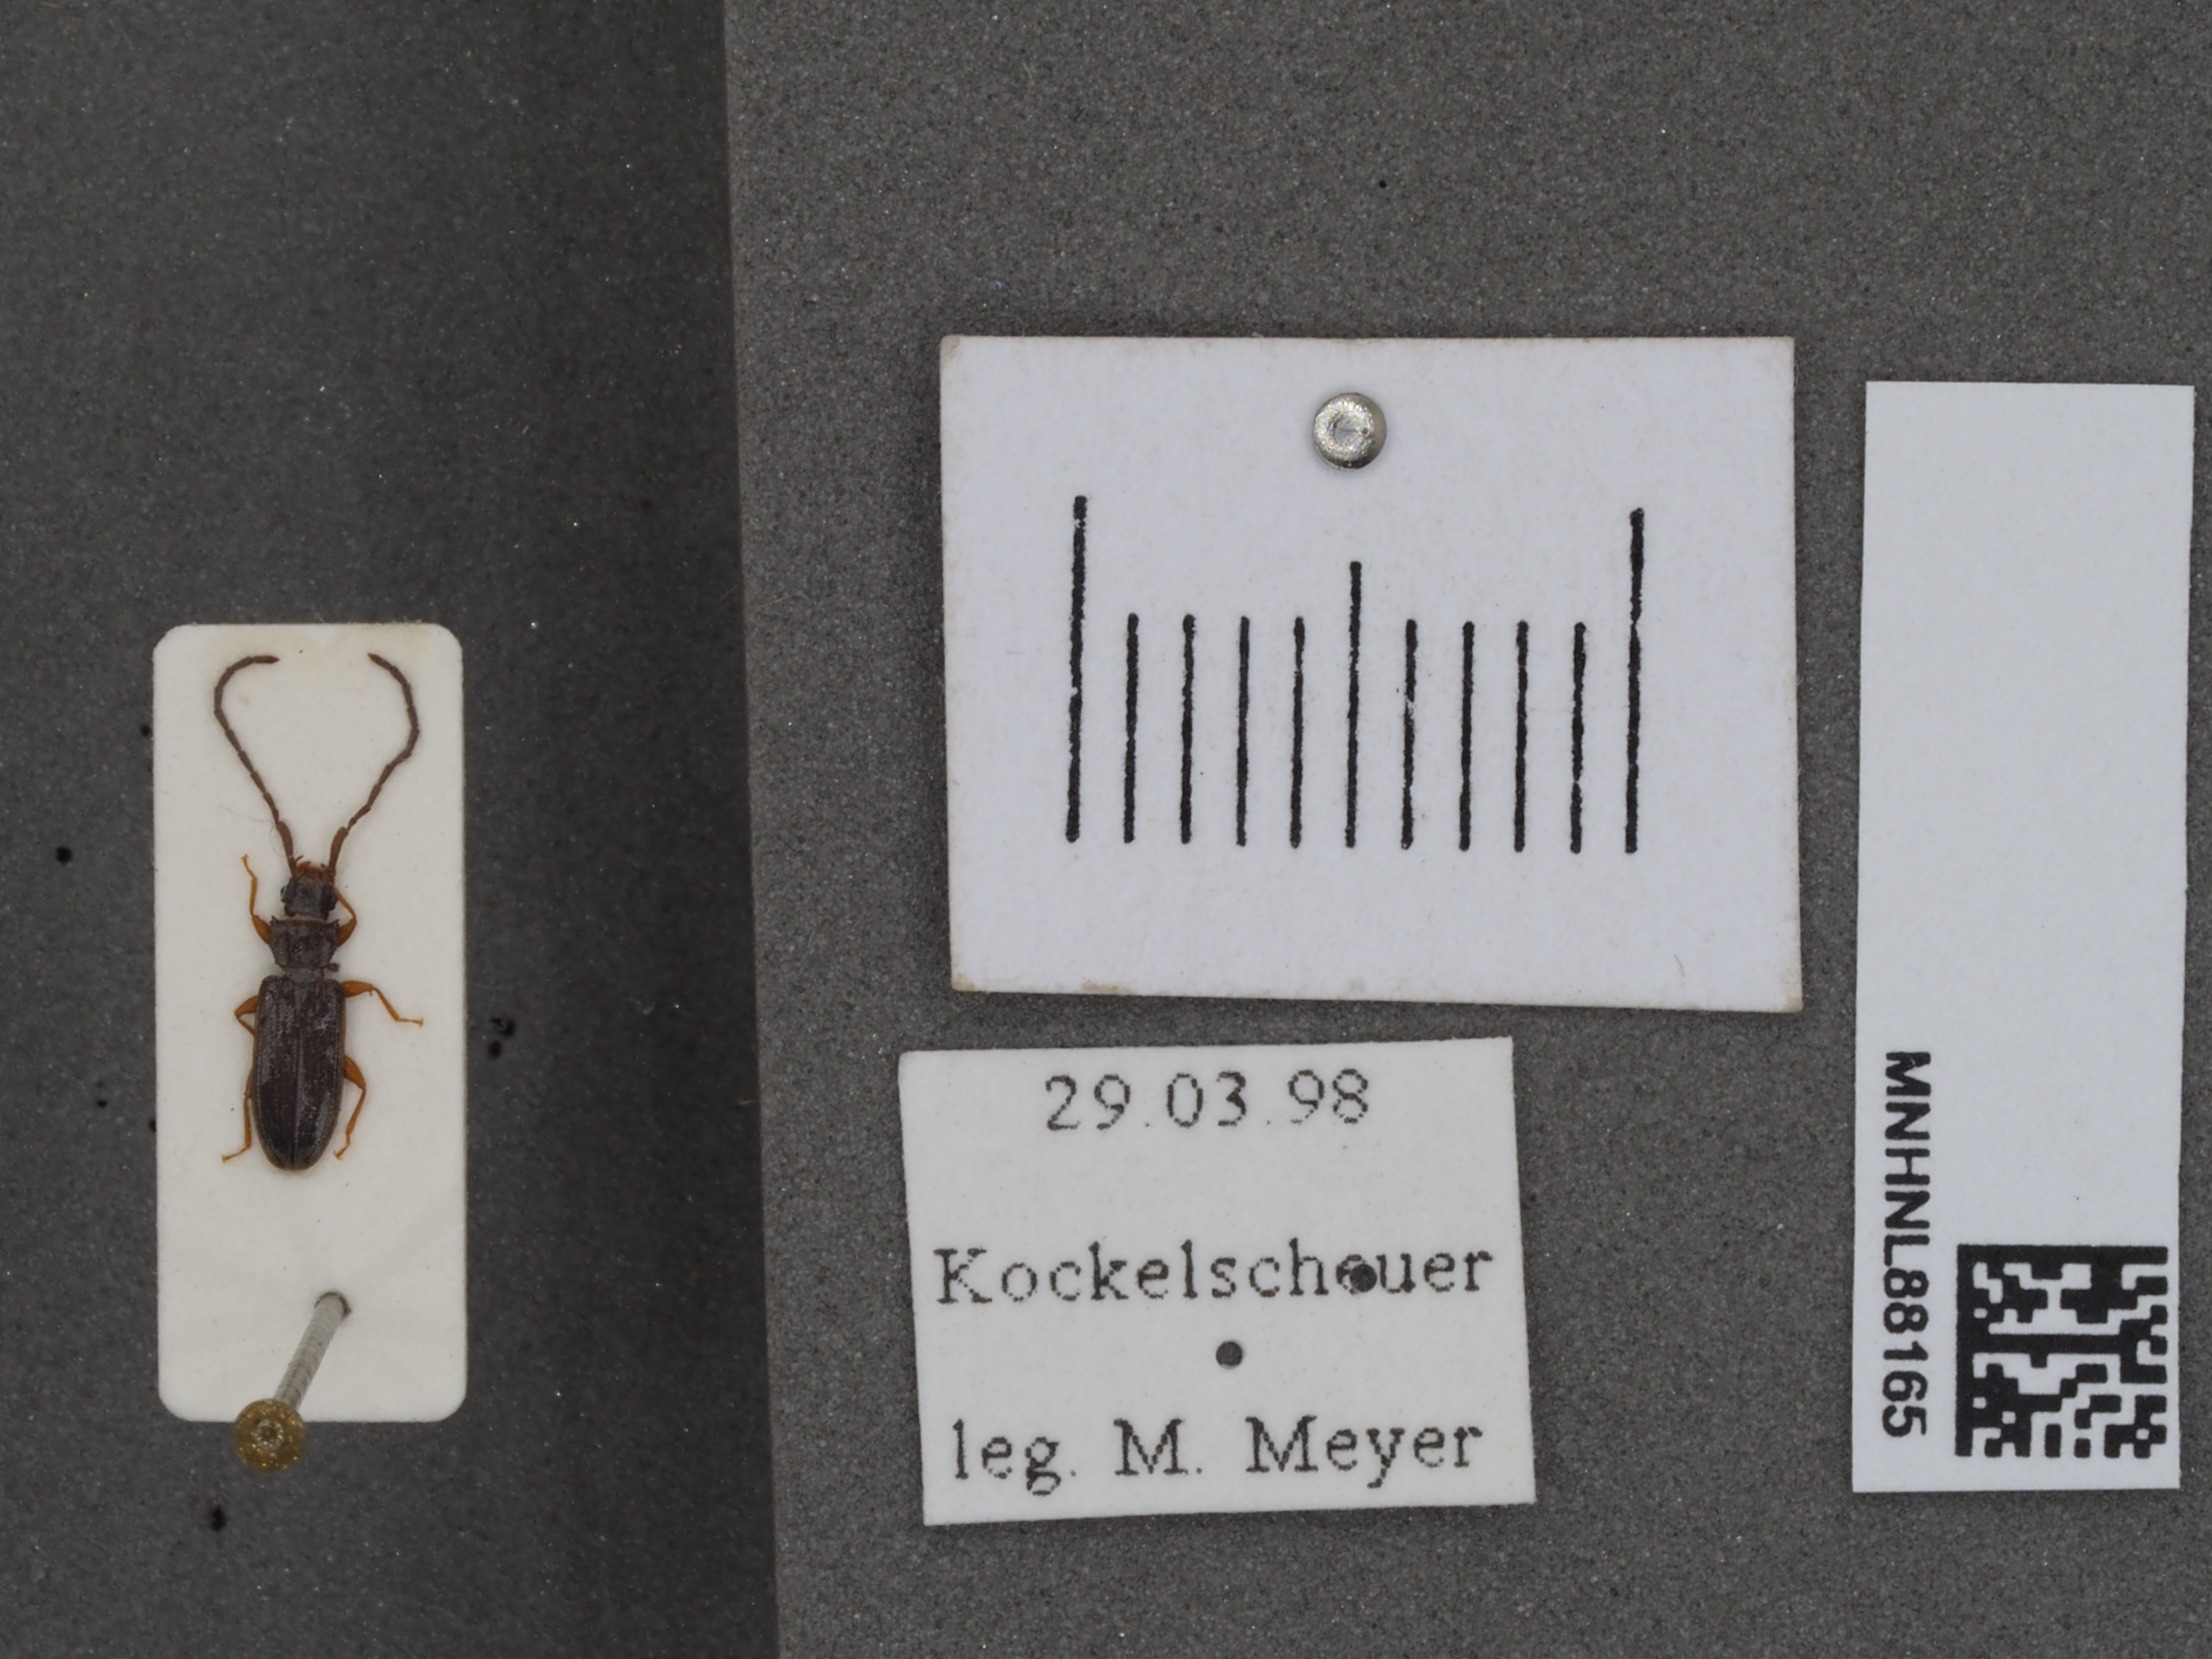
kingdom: Animalia
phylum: Arthropoda
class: Insecta
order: Coleoptera
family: Silvanidae
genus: Uleiota
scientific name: Uleiota planatus
